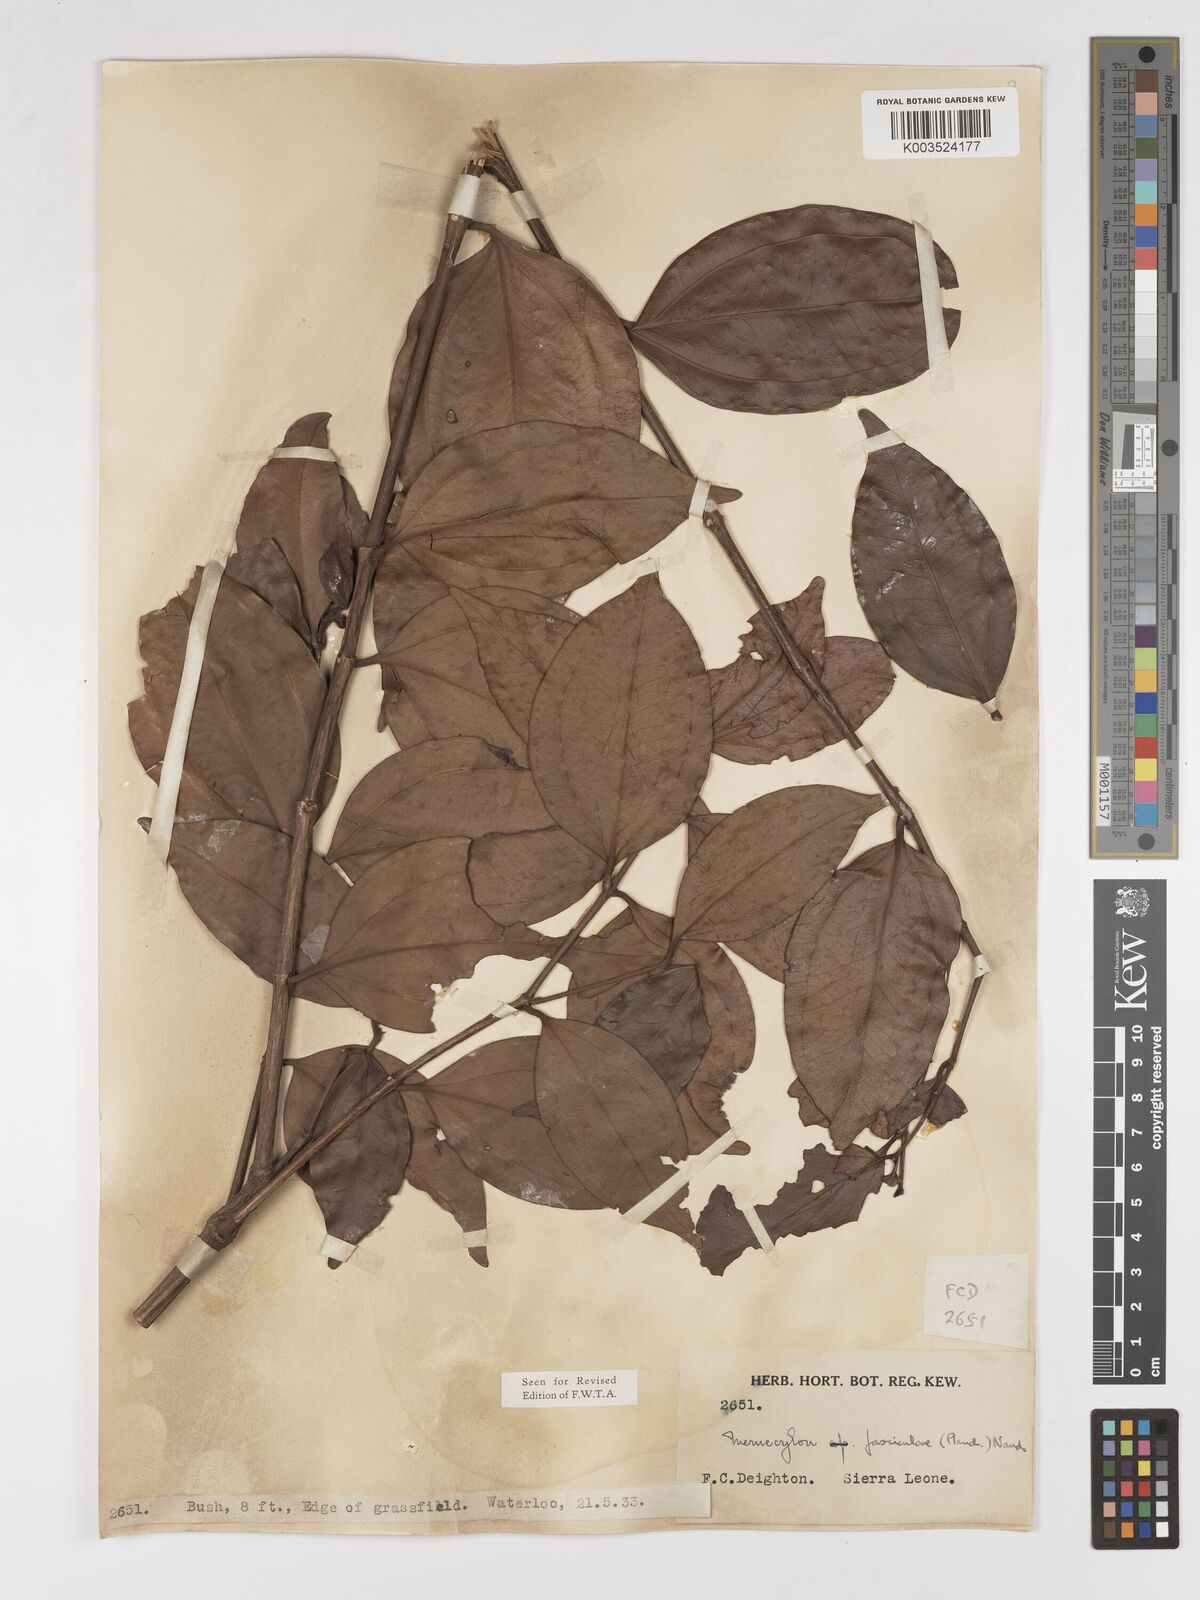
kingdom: Plantae
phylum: Tracheophyta
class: Magnoliopsida
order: Myrtales
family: Melastomataceae
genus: Warneckea
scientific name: Warneckea fascicularis
